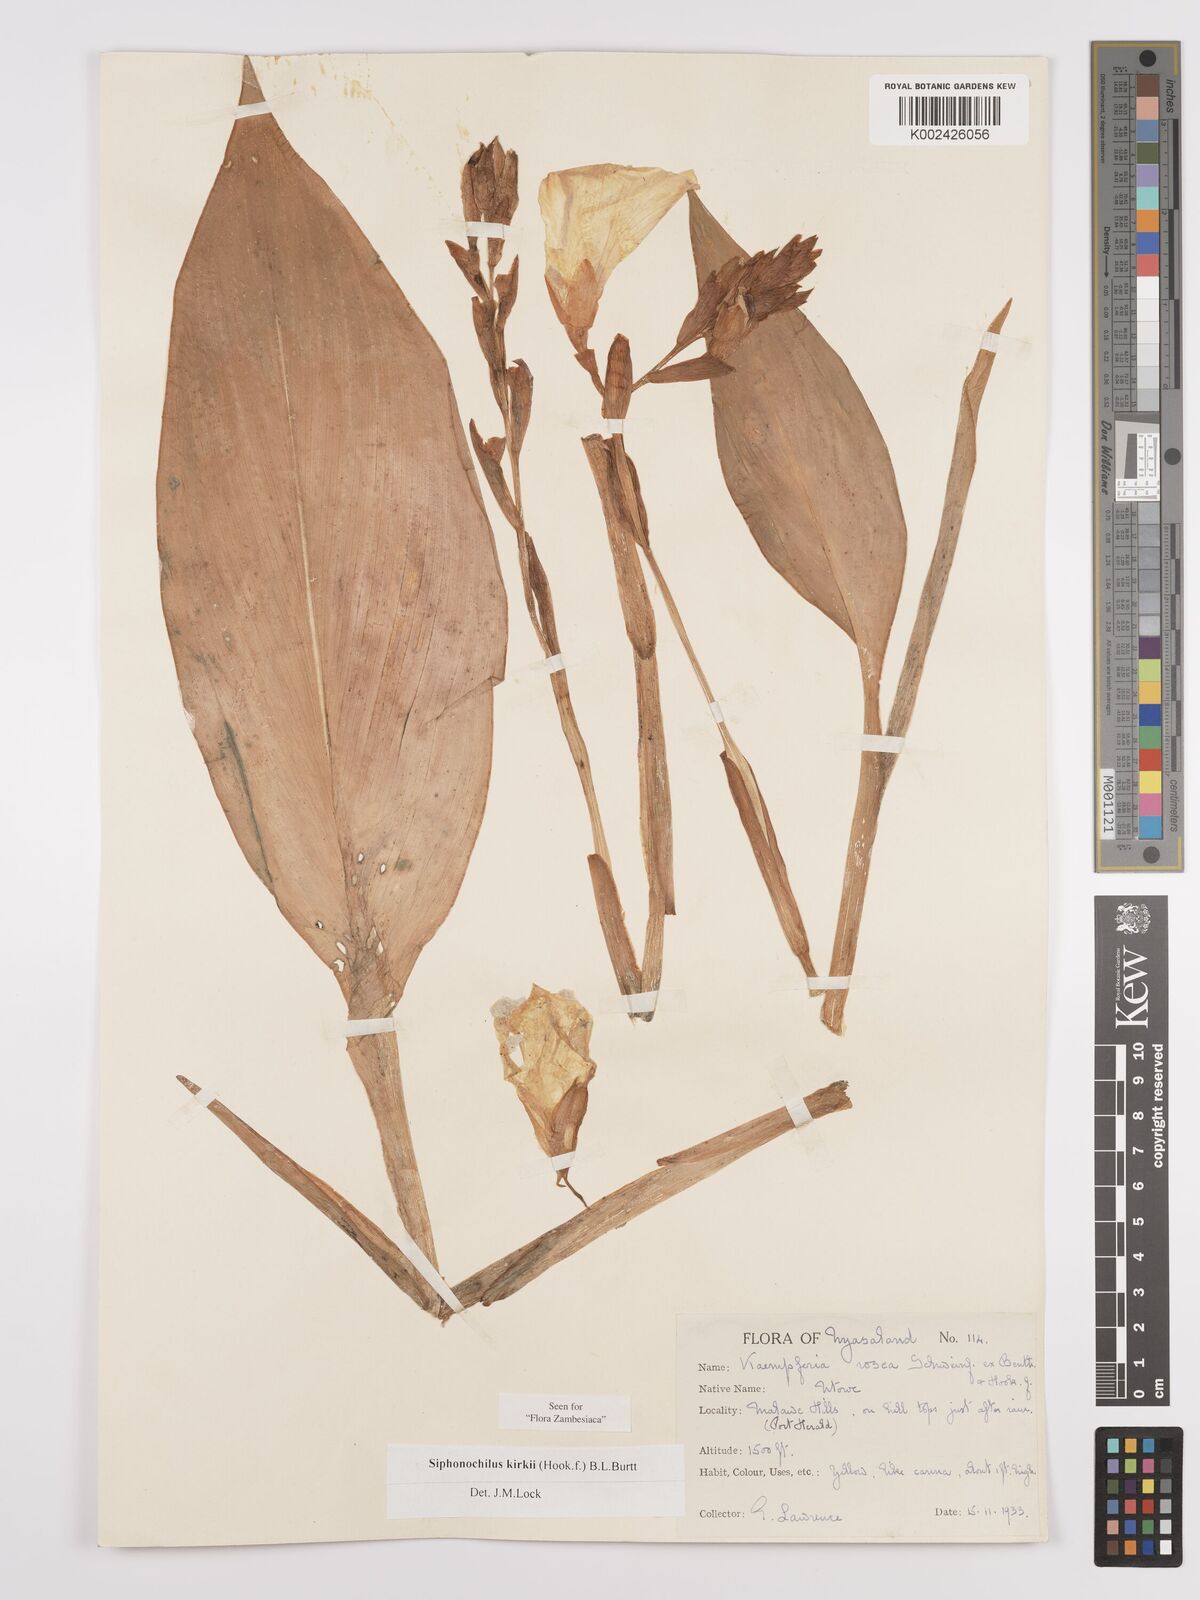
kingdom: Plantae
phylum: Tracheophyta
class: Liliopsida
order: Zingiberales
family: Zingiberaceae
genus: Siphonochilus
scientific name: Siphonochilus kirkii
